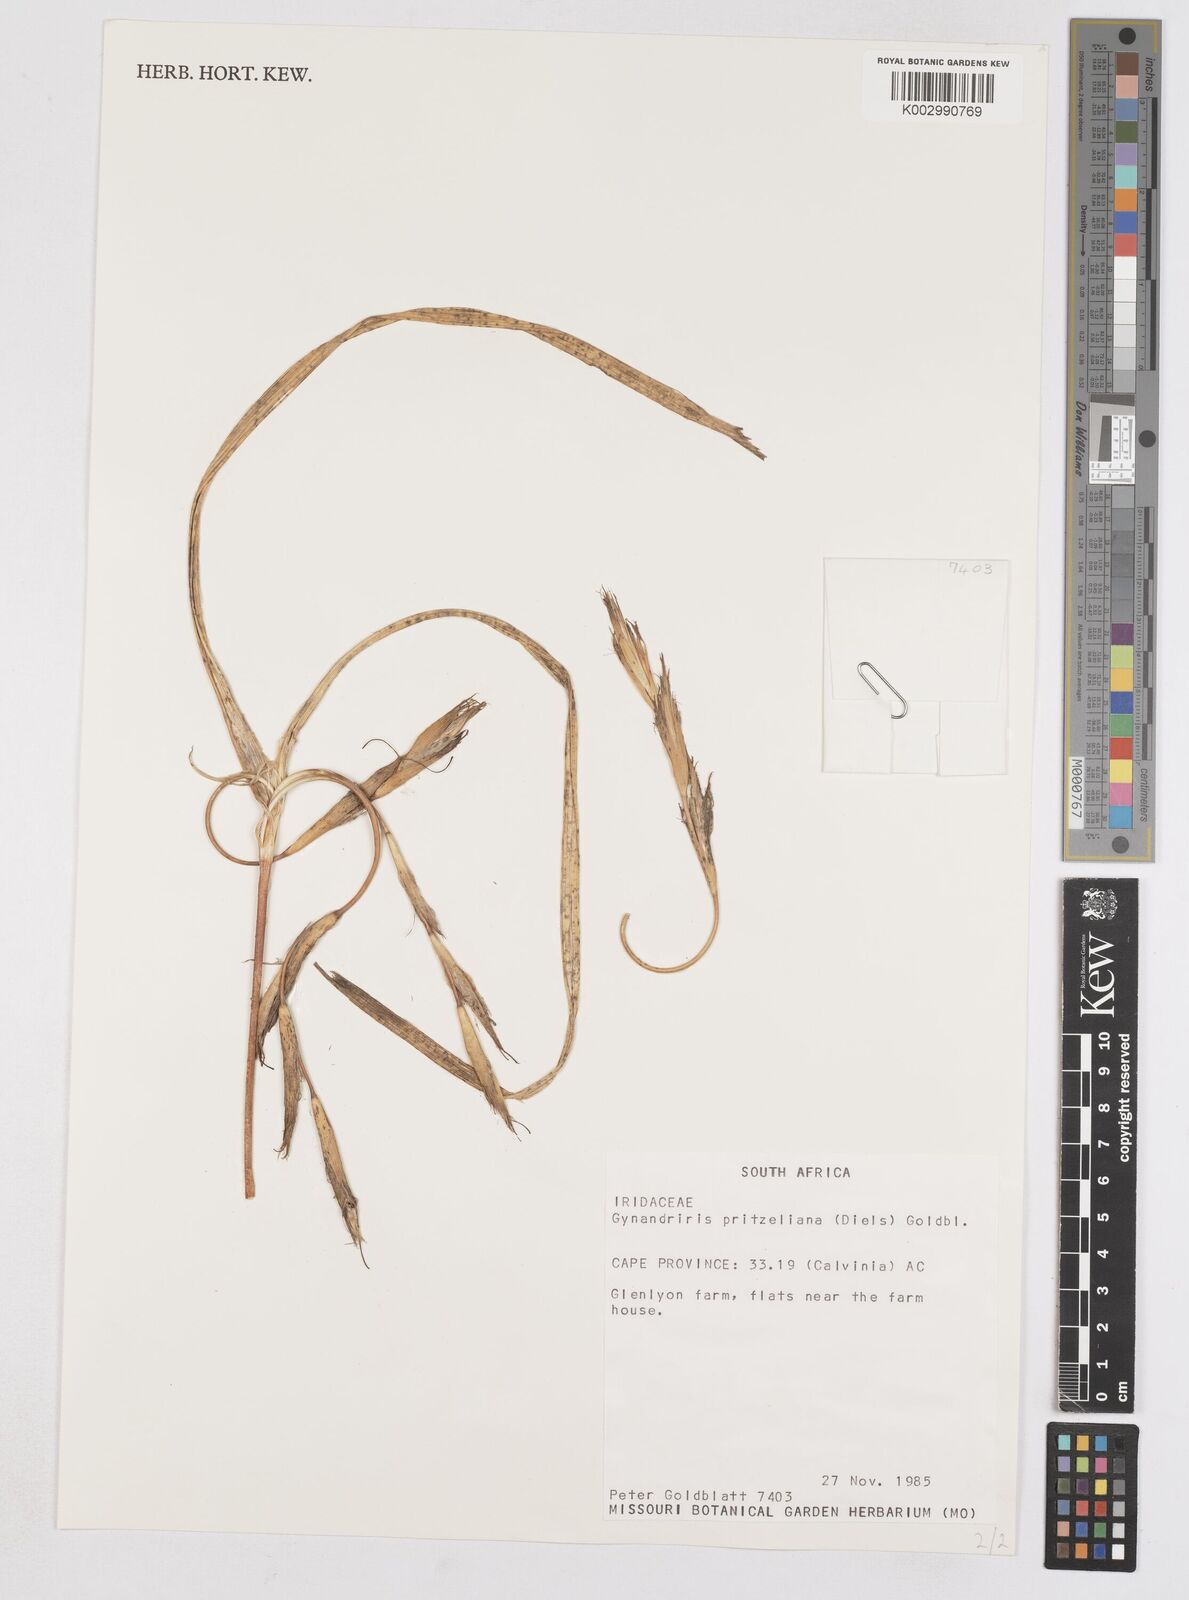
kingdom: Plantae
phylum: Tracheophyta
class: Liliopsida
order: Asparagales
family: Iridaceae
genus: Moraea
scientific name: Moraea pritzeliana
